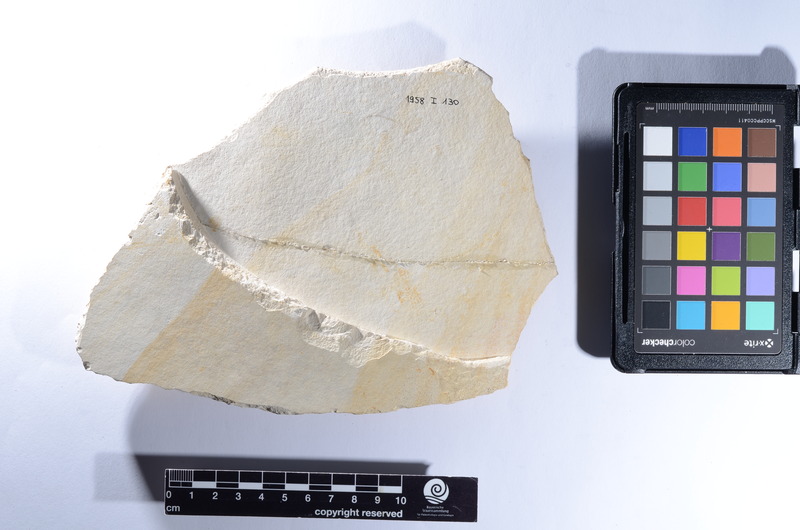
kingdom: Animalia
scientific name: Animalia
